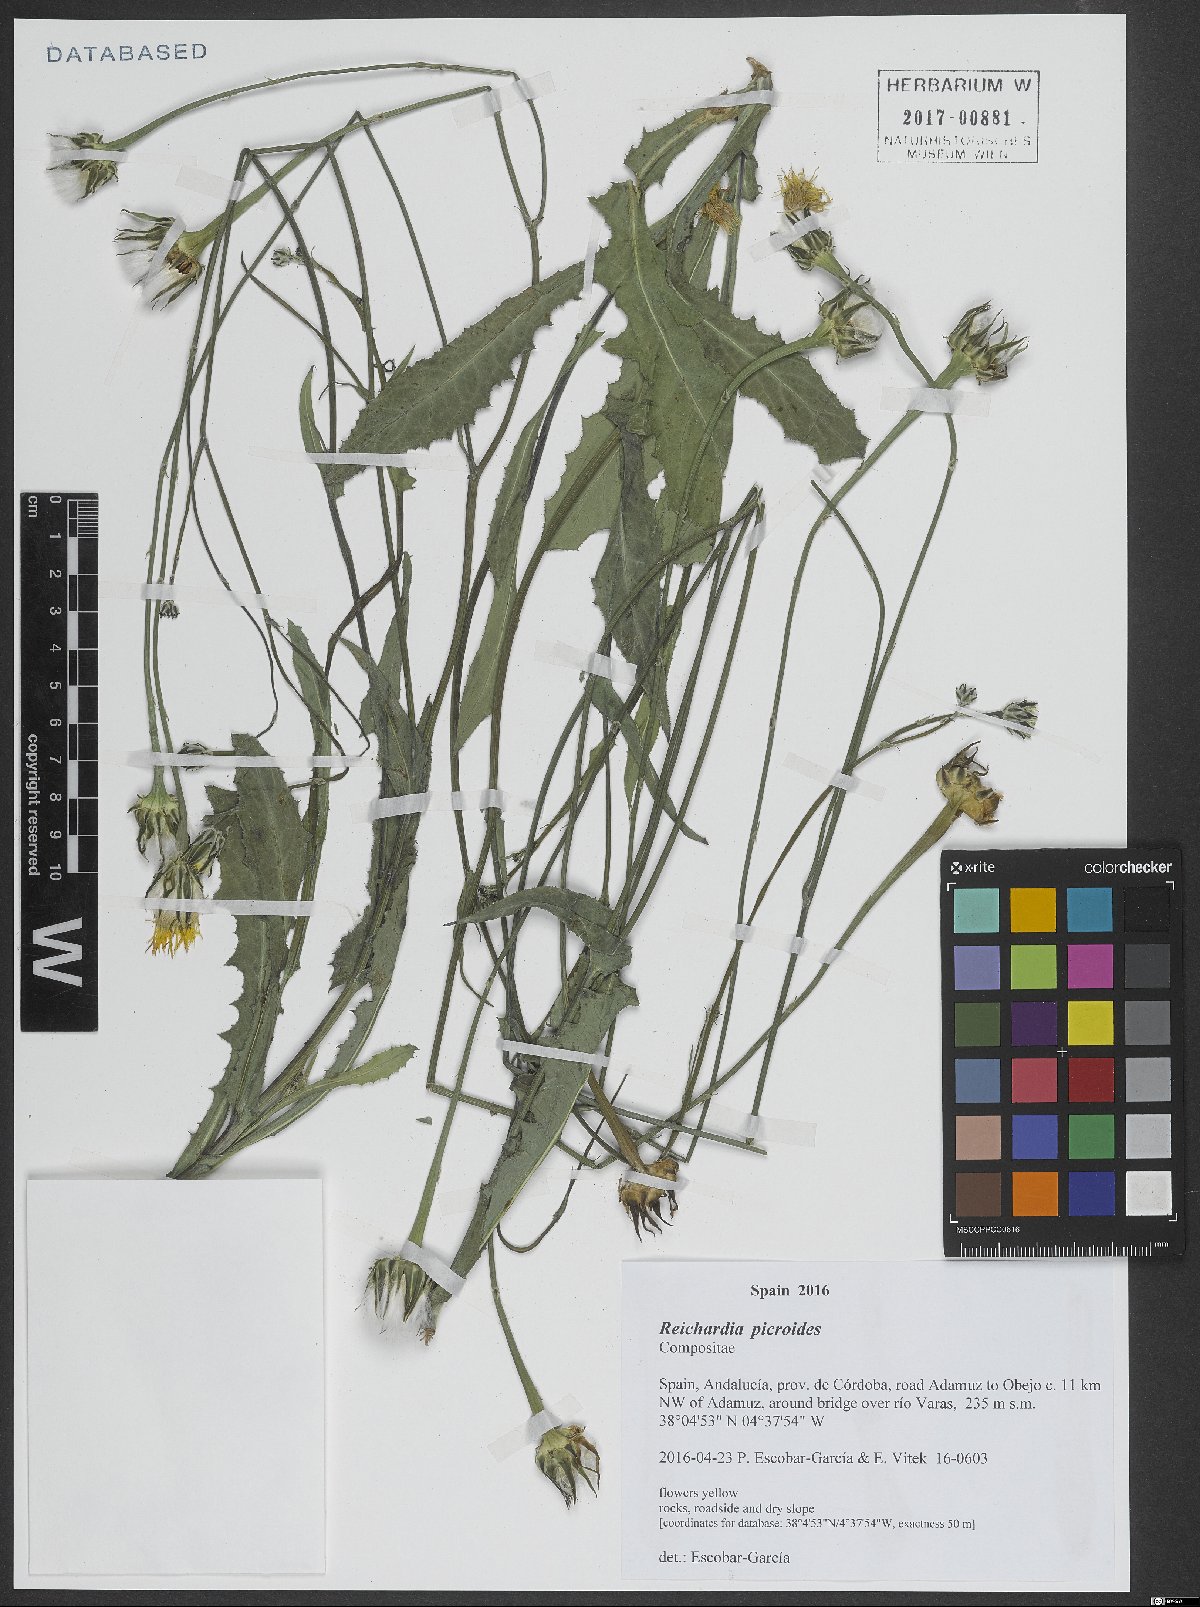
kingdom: Plantae
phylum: Tracheophyta
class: Magnoliopsida
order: Asterales
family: Asteraceae
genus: Reichardia
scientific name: Reichardia picroides
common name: Common brighteyes
